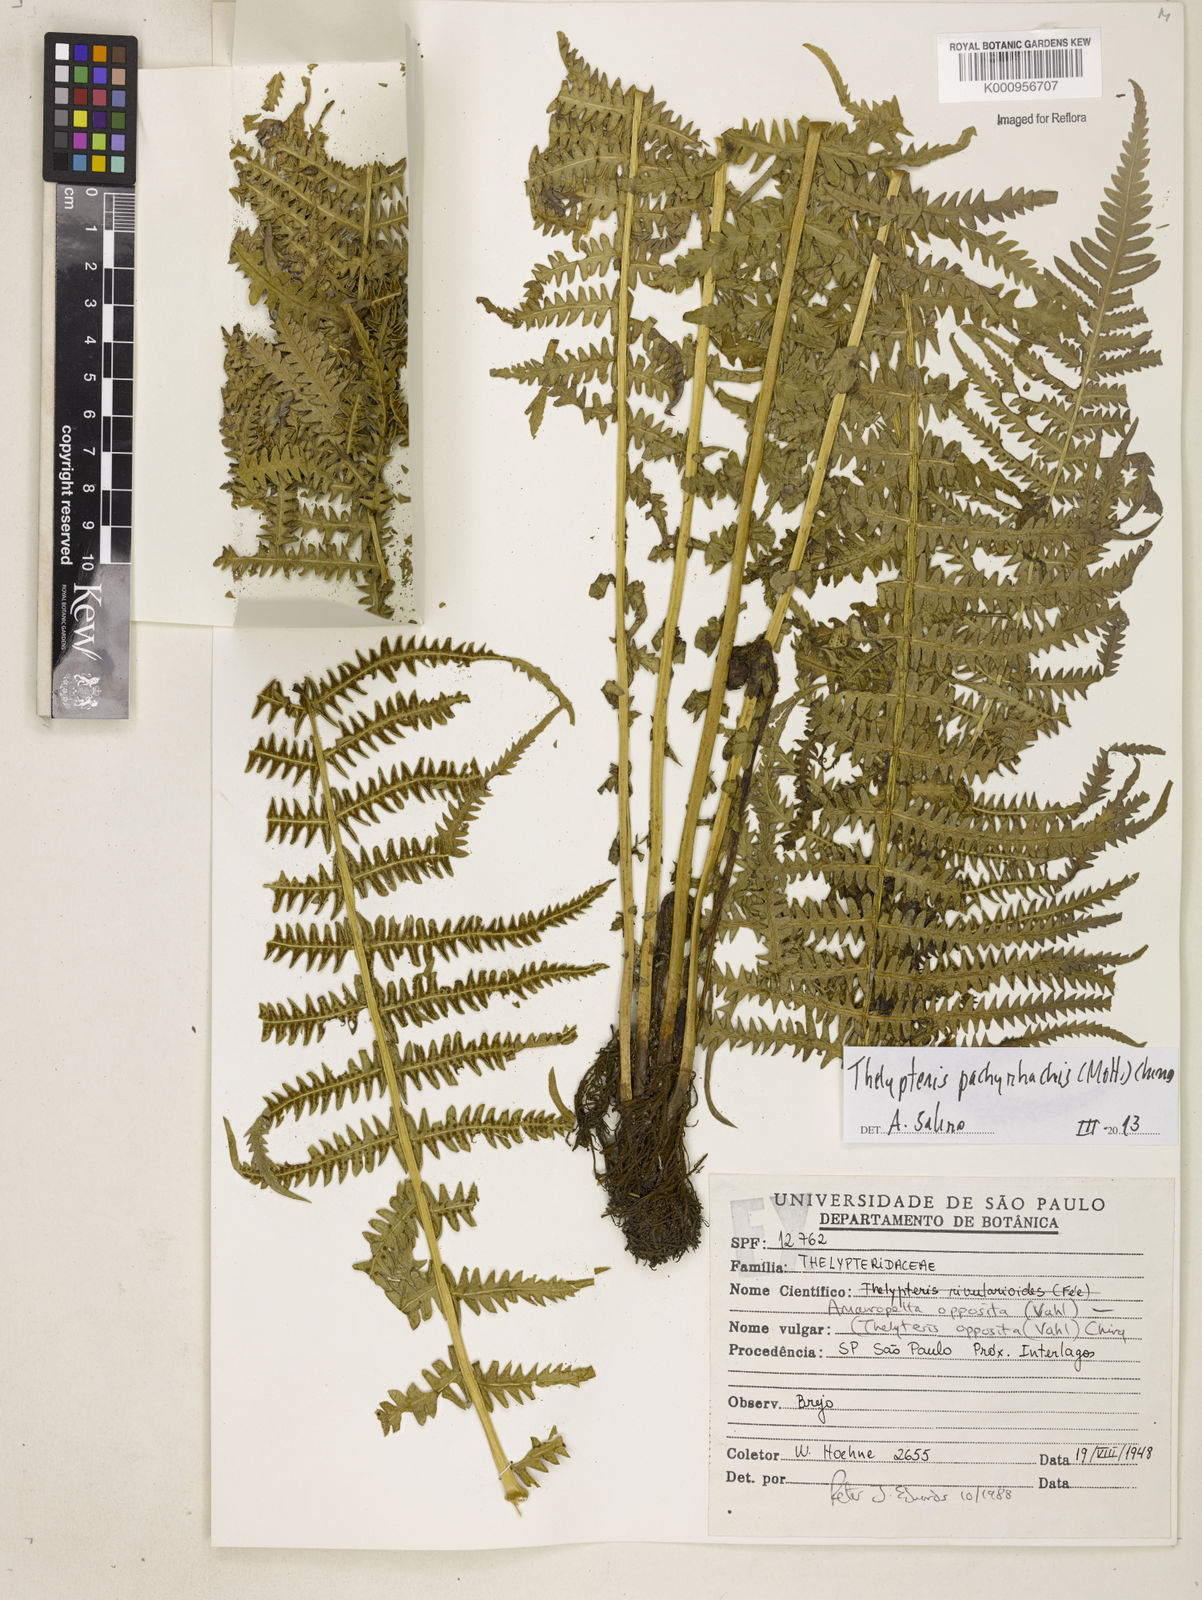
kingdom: Plantae
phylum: Tracheophyta
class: Polypodiopsida
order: Polypodiales
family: Thelypteridaceae
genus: Amauropelta
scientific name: Amauropelta pachyrhachis
